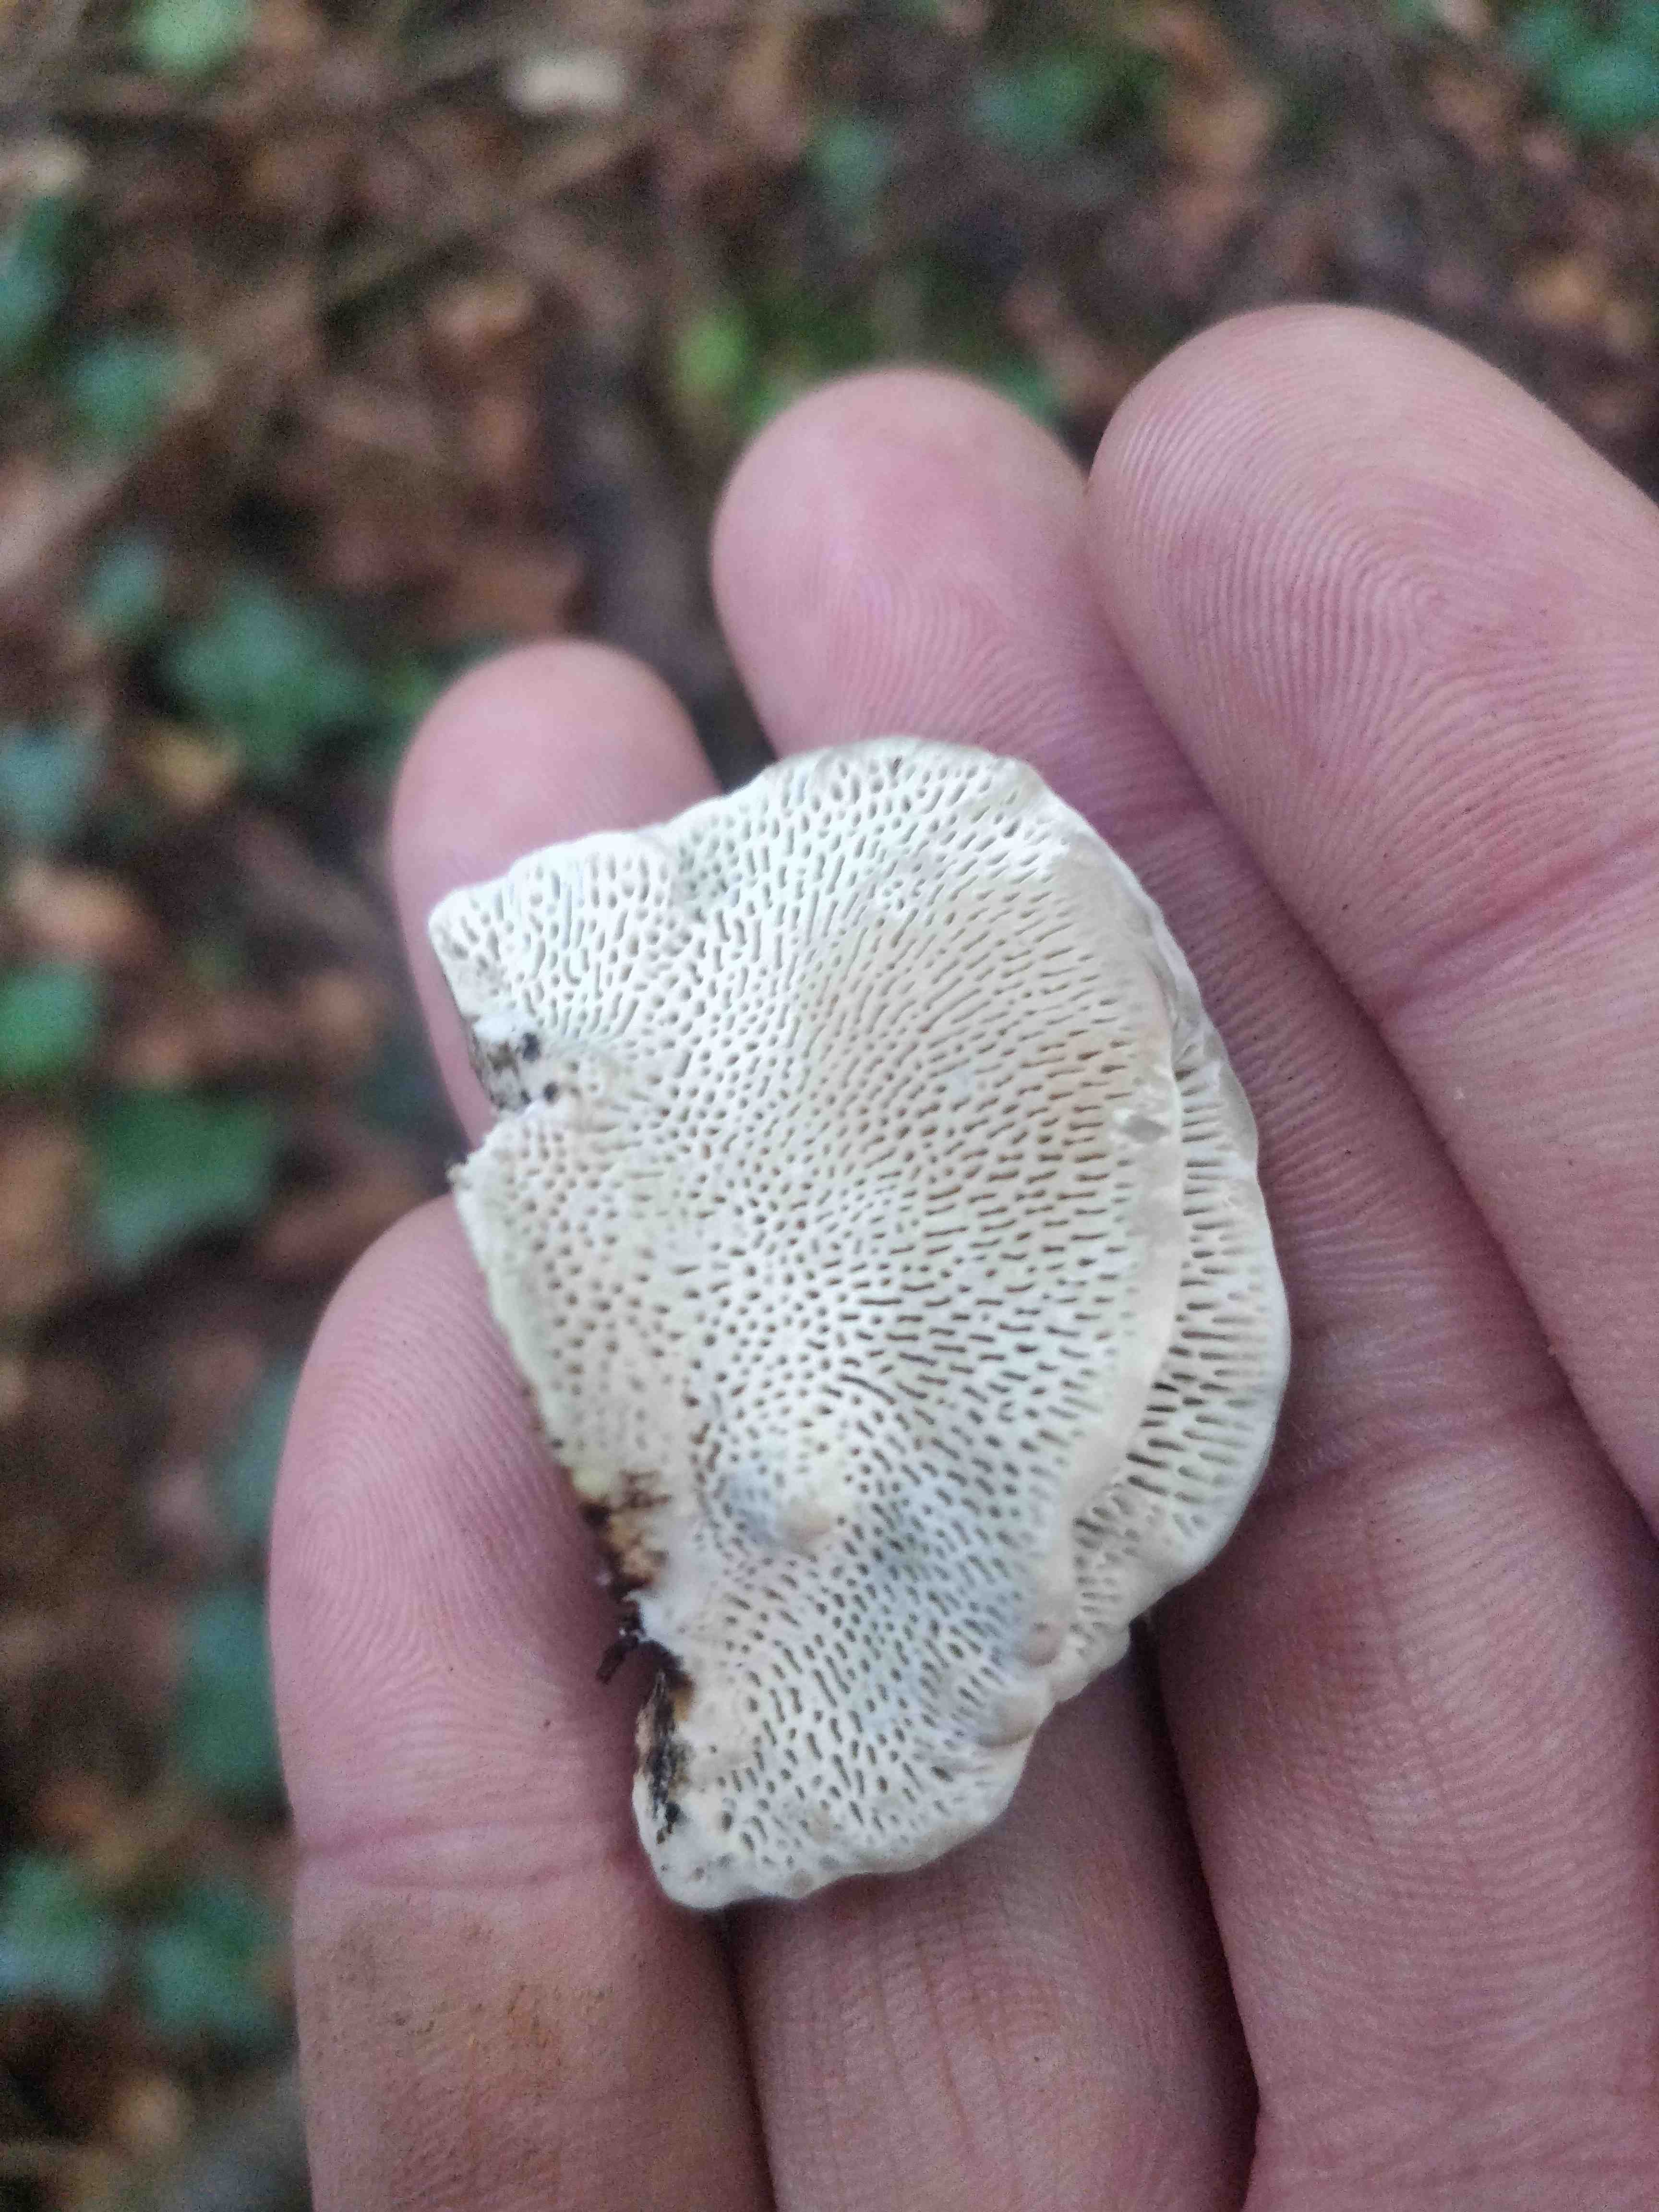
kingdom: Fungi
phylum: Basidiomycota
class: Agaricomycetes
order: Polyporales
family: Polyporaceae
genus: Daedaleopsis
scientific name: Daedaleopsis confragosa
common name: rødmende læderporesvamp
